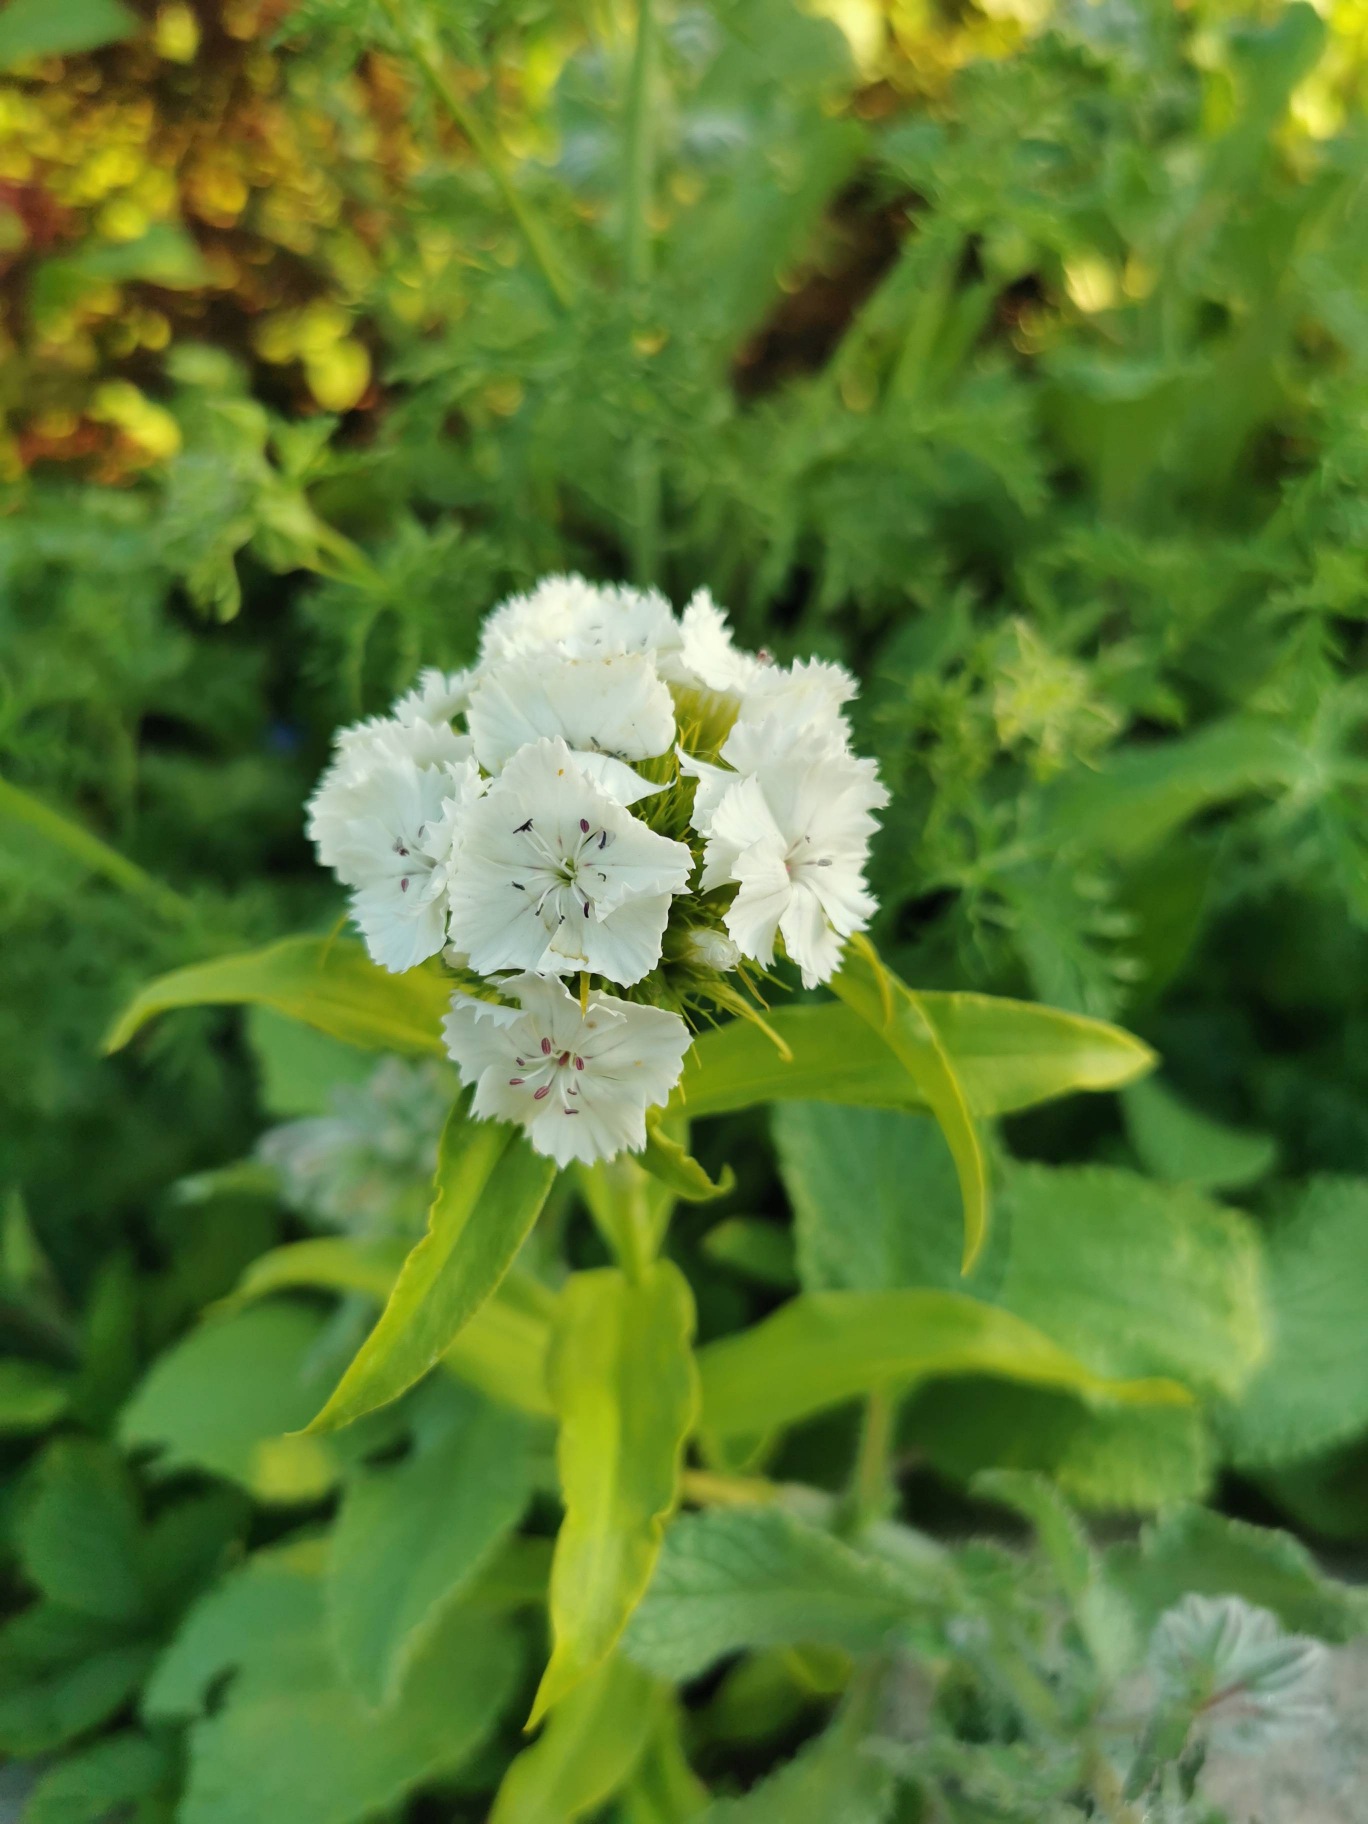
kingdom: Plantae
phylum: Tracheophyta
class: Magnoliopsida
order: Caryophyllales
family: Caryophyllaceae
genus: Dianthus
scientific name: Dianthus barbatus
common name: Studenter-nellike
